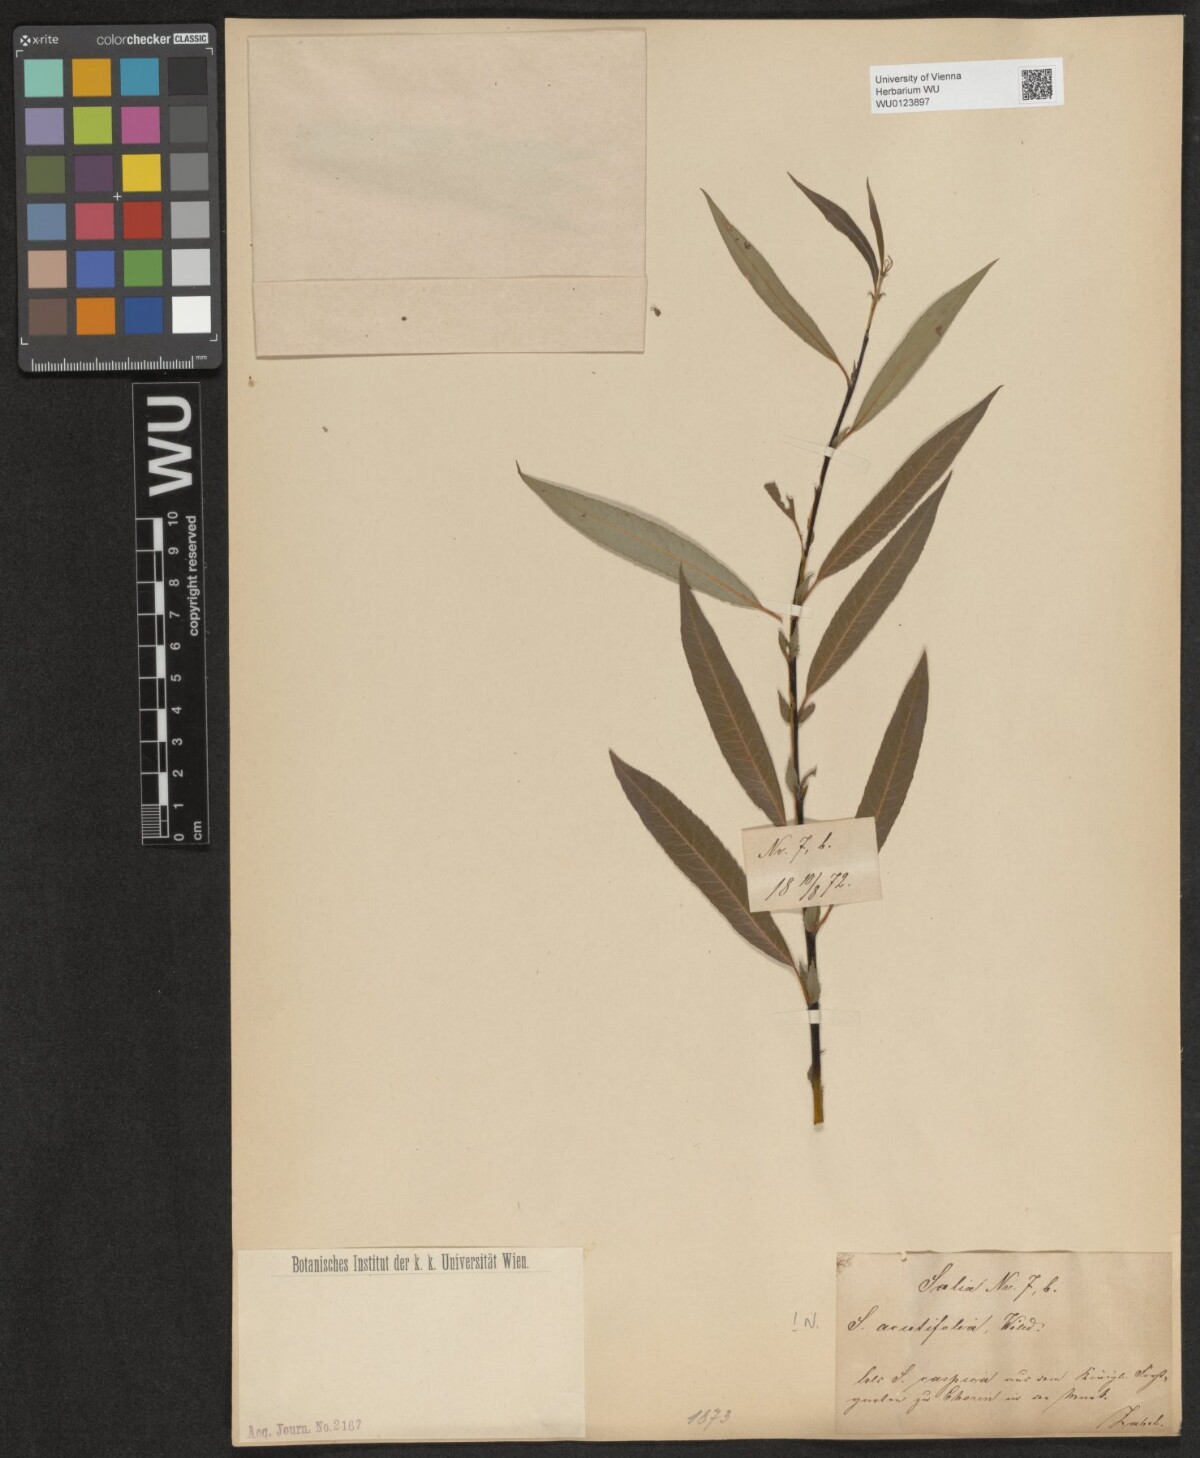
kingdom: Plantae
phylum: Tracheophyta
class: Magnoliopsida
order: Malpighiales
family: Salicaceae
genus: Salix
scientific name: Salix acutifolia
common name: Siberian violet-willow
